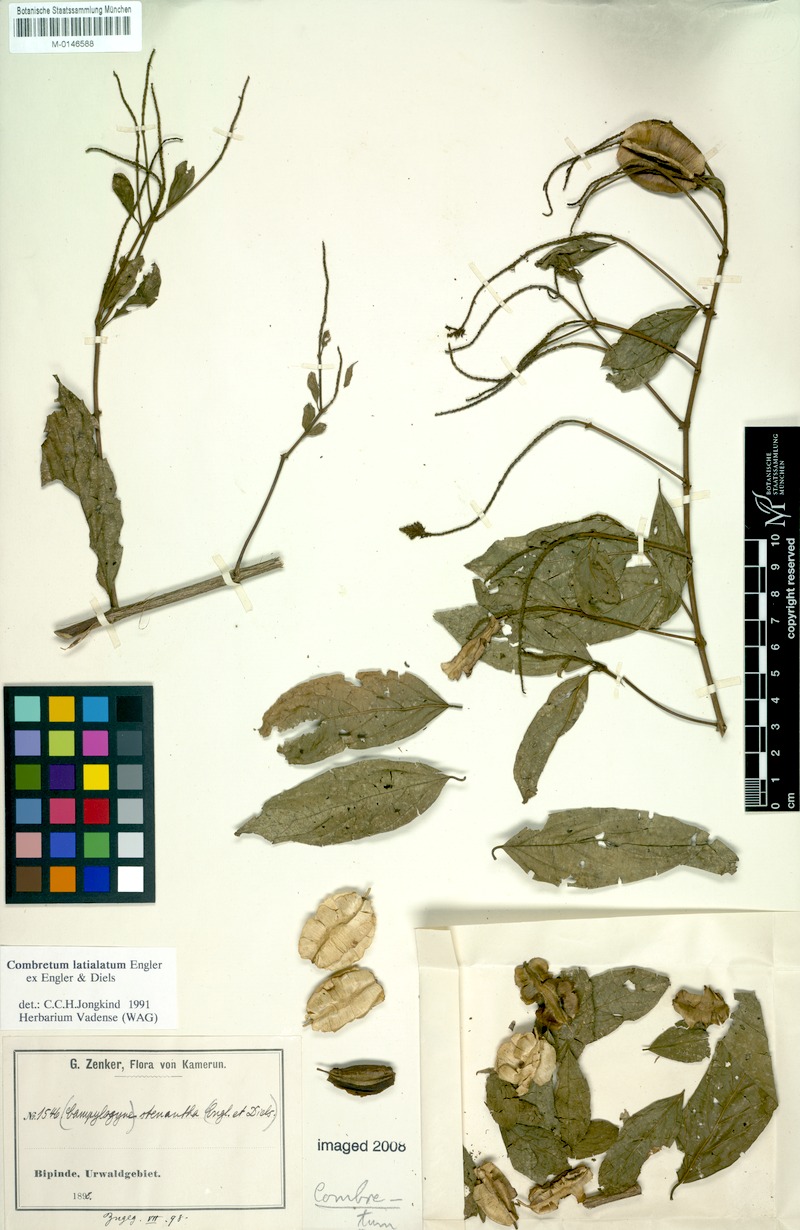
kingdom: Plantae
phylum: Tracheophyta
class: Magnoliopsida
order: Myrtales
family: Combretaceae
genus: Combretum
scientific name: Combretum latialatum
